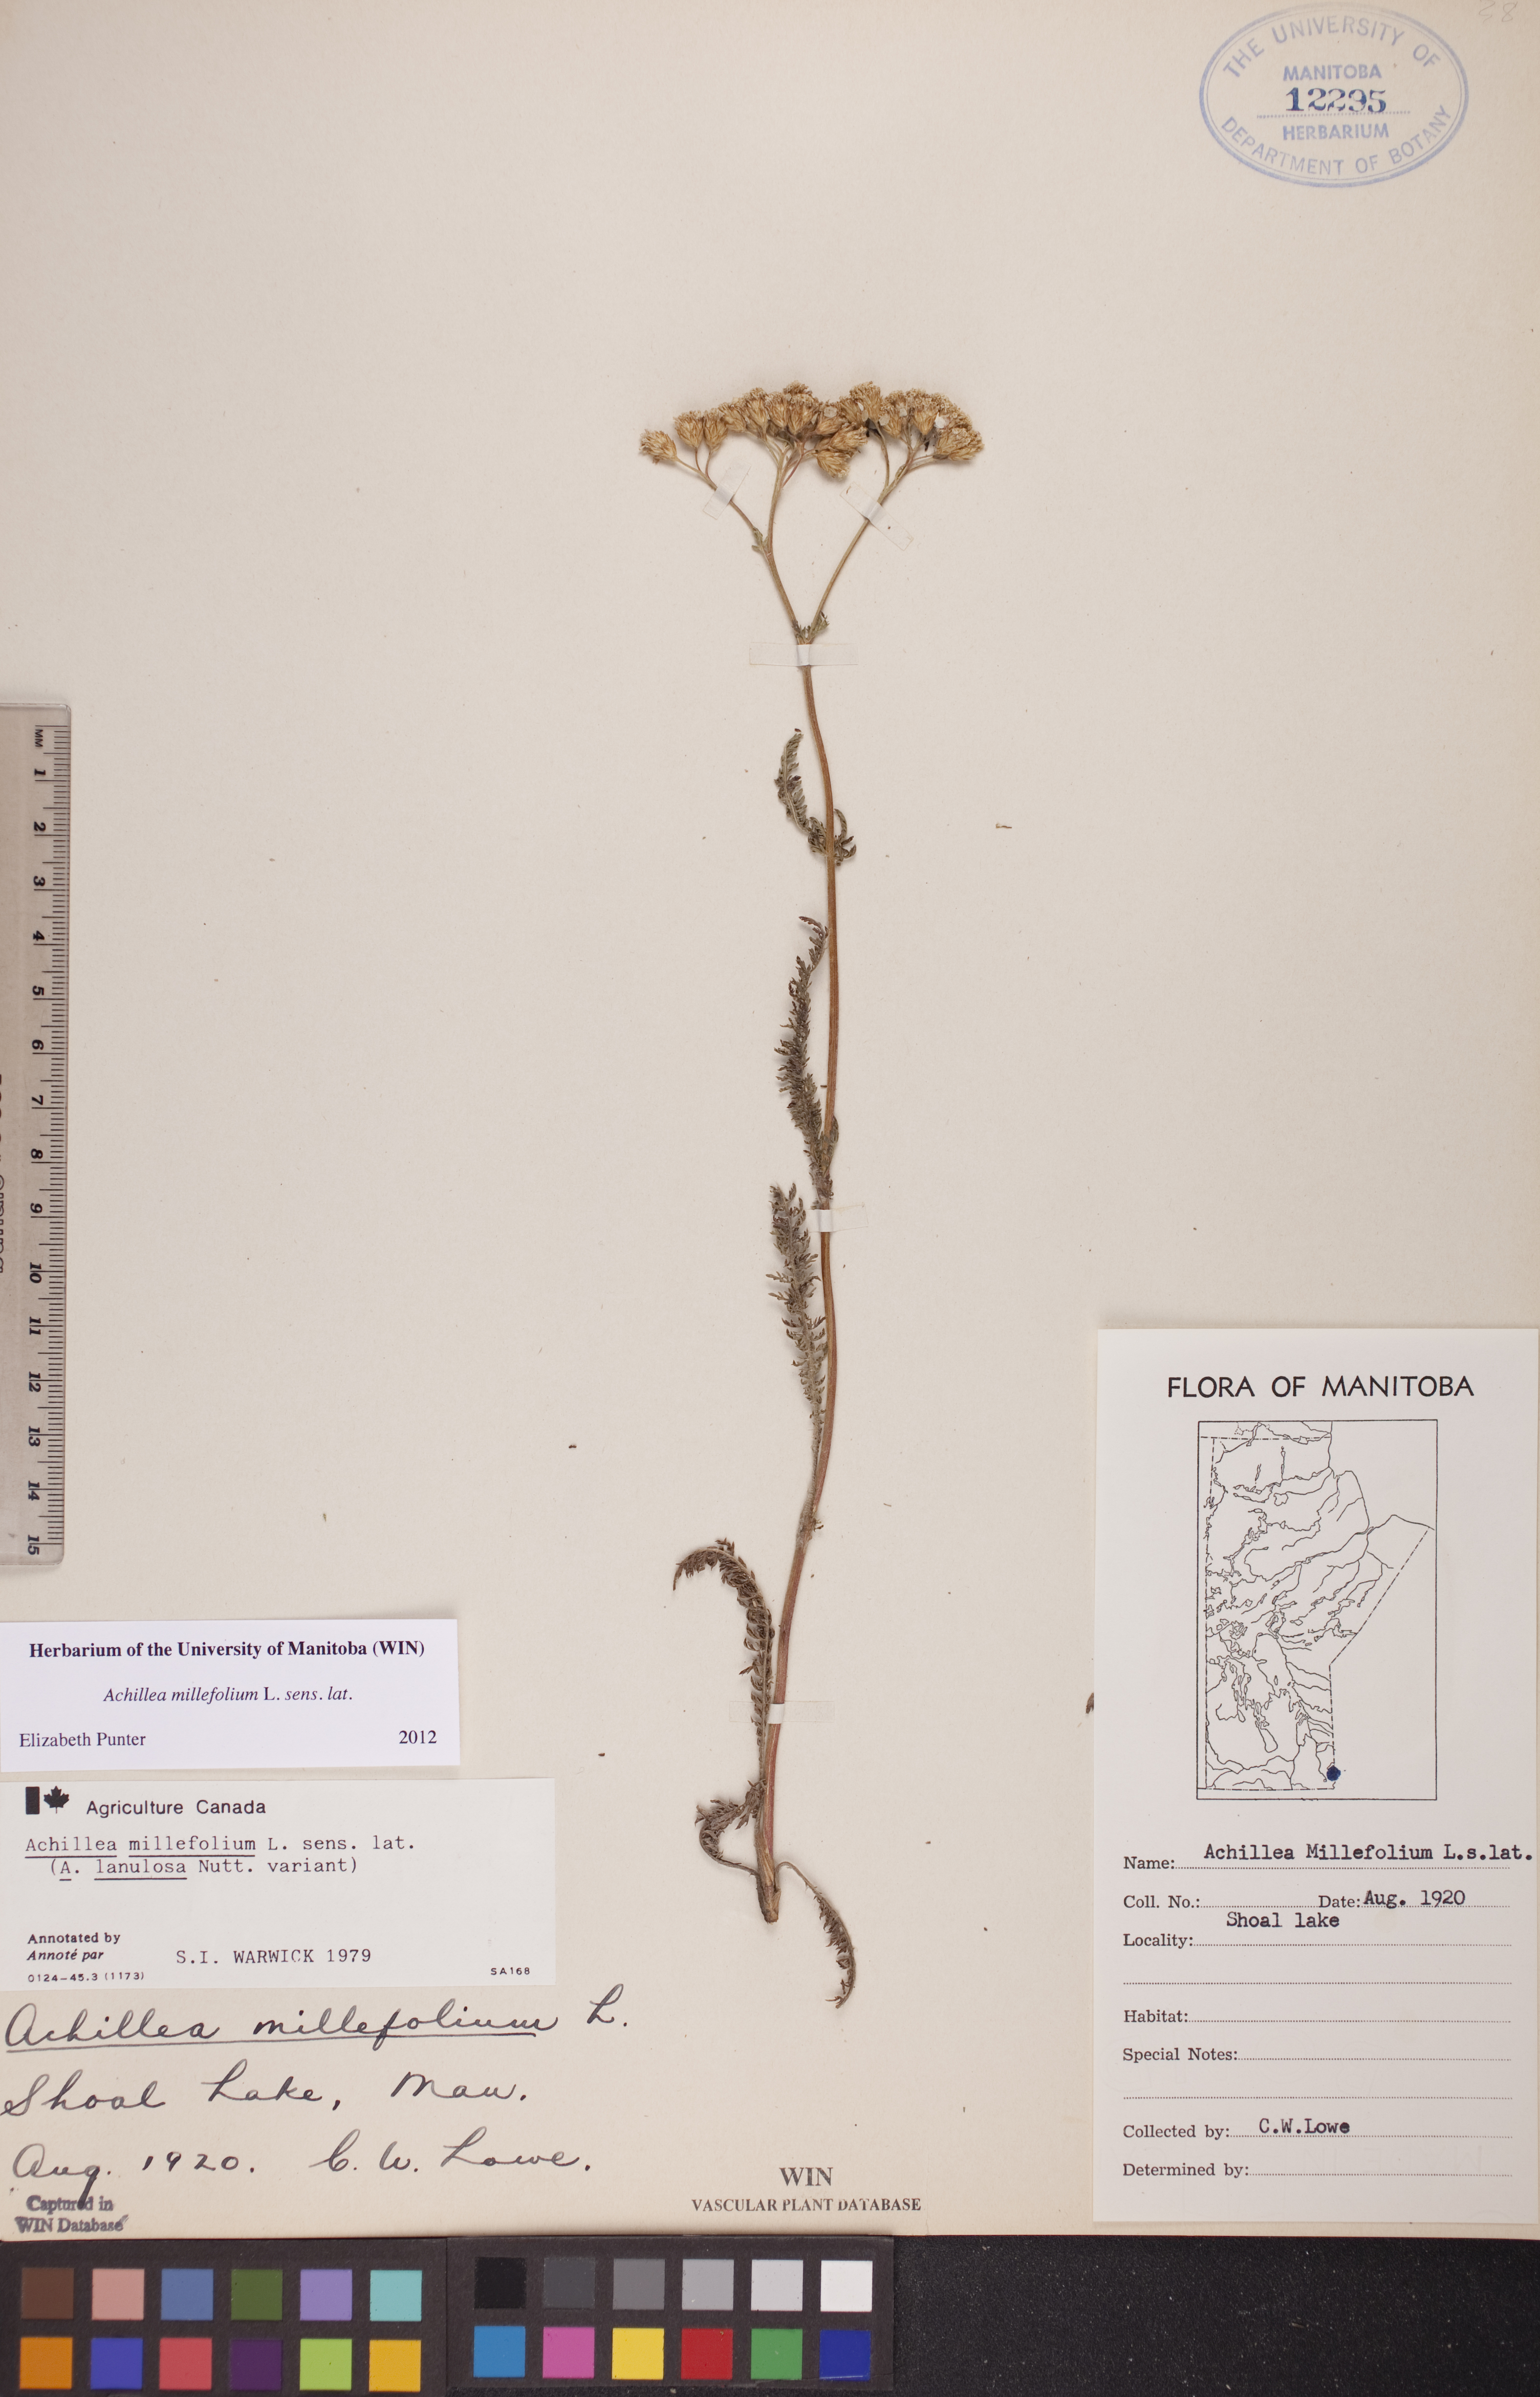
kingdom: Plantae
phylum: Tracheophyta
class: Magnoliopsida
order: Asterales
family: Asteraceae
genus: Achillea
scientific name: Achillea millefolium
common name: Yarrow
